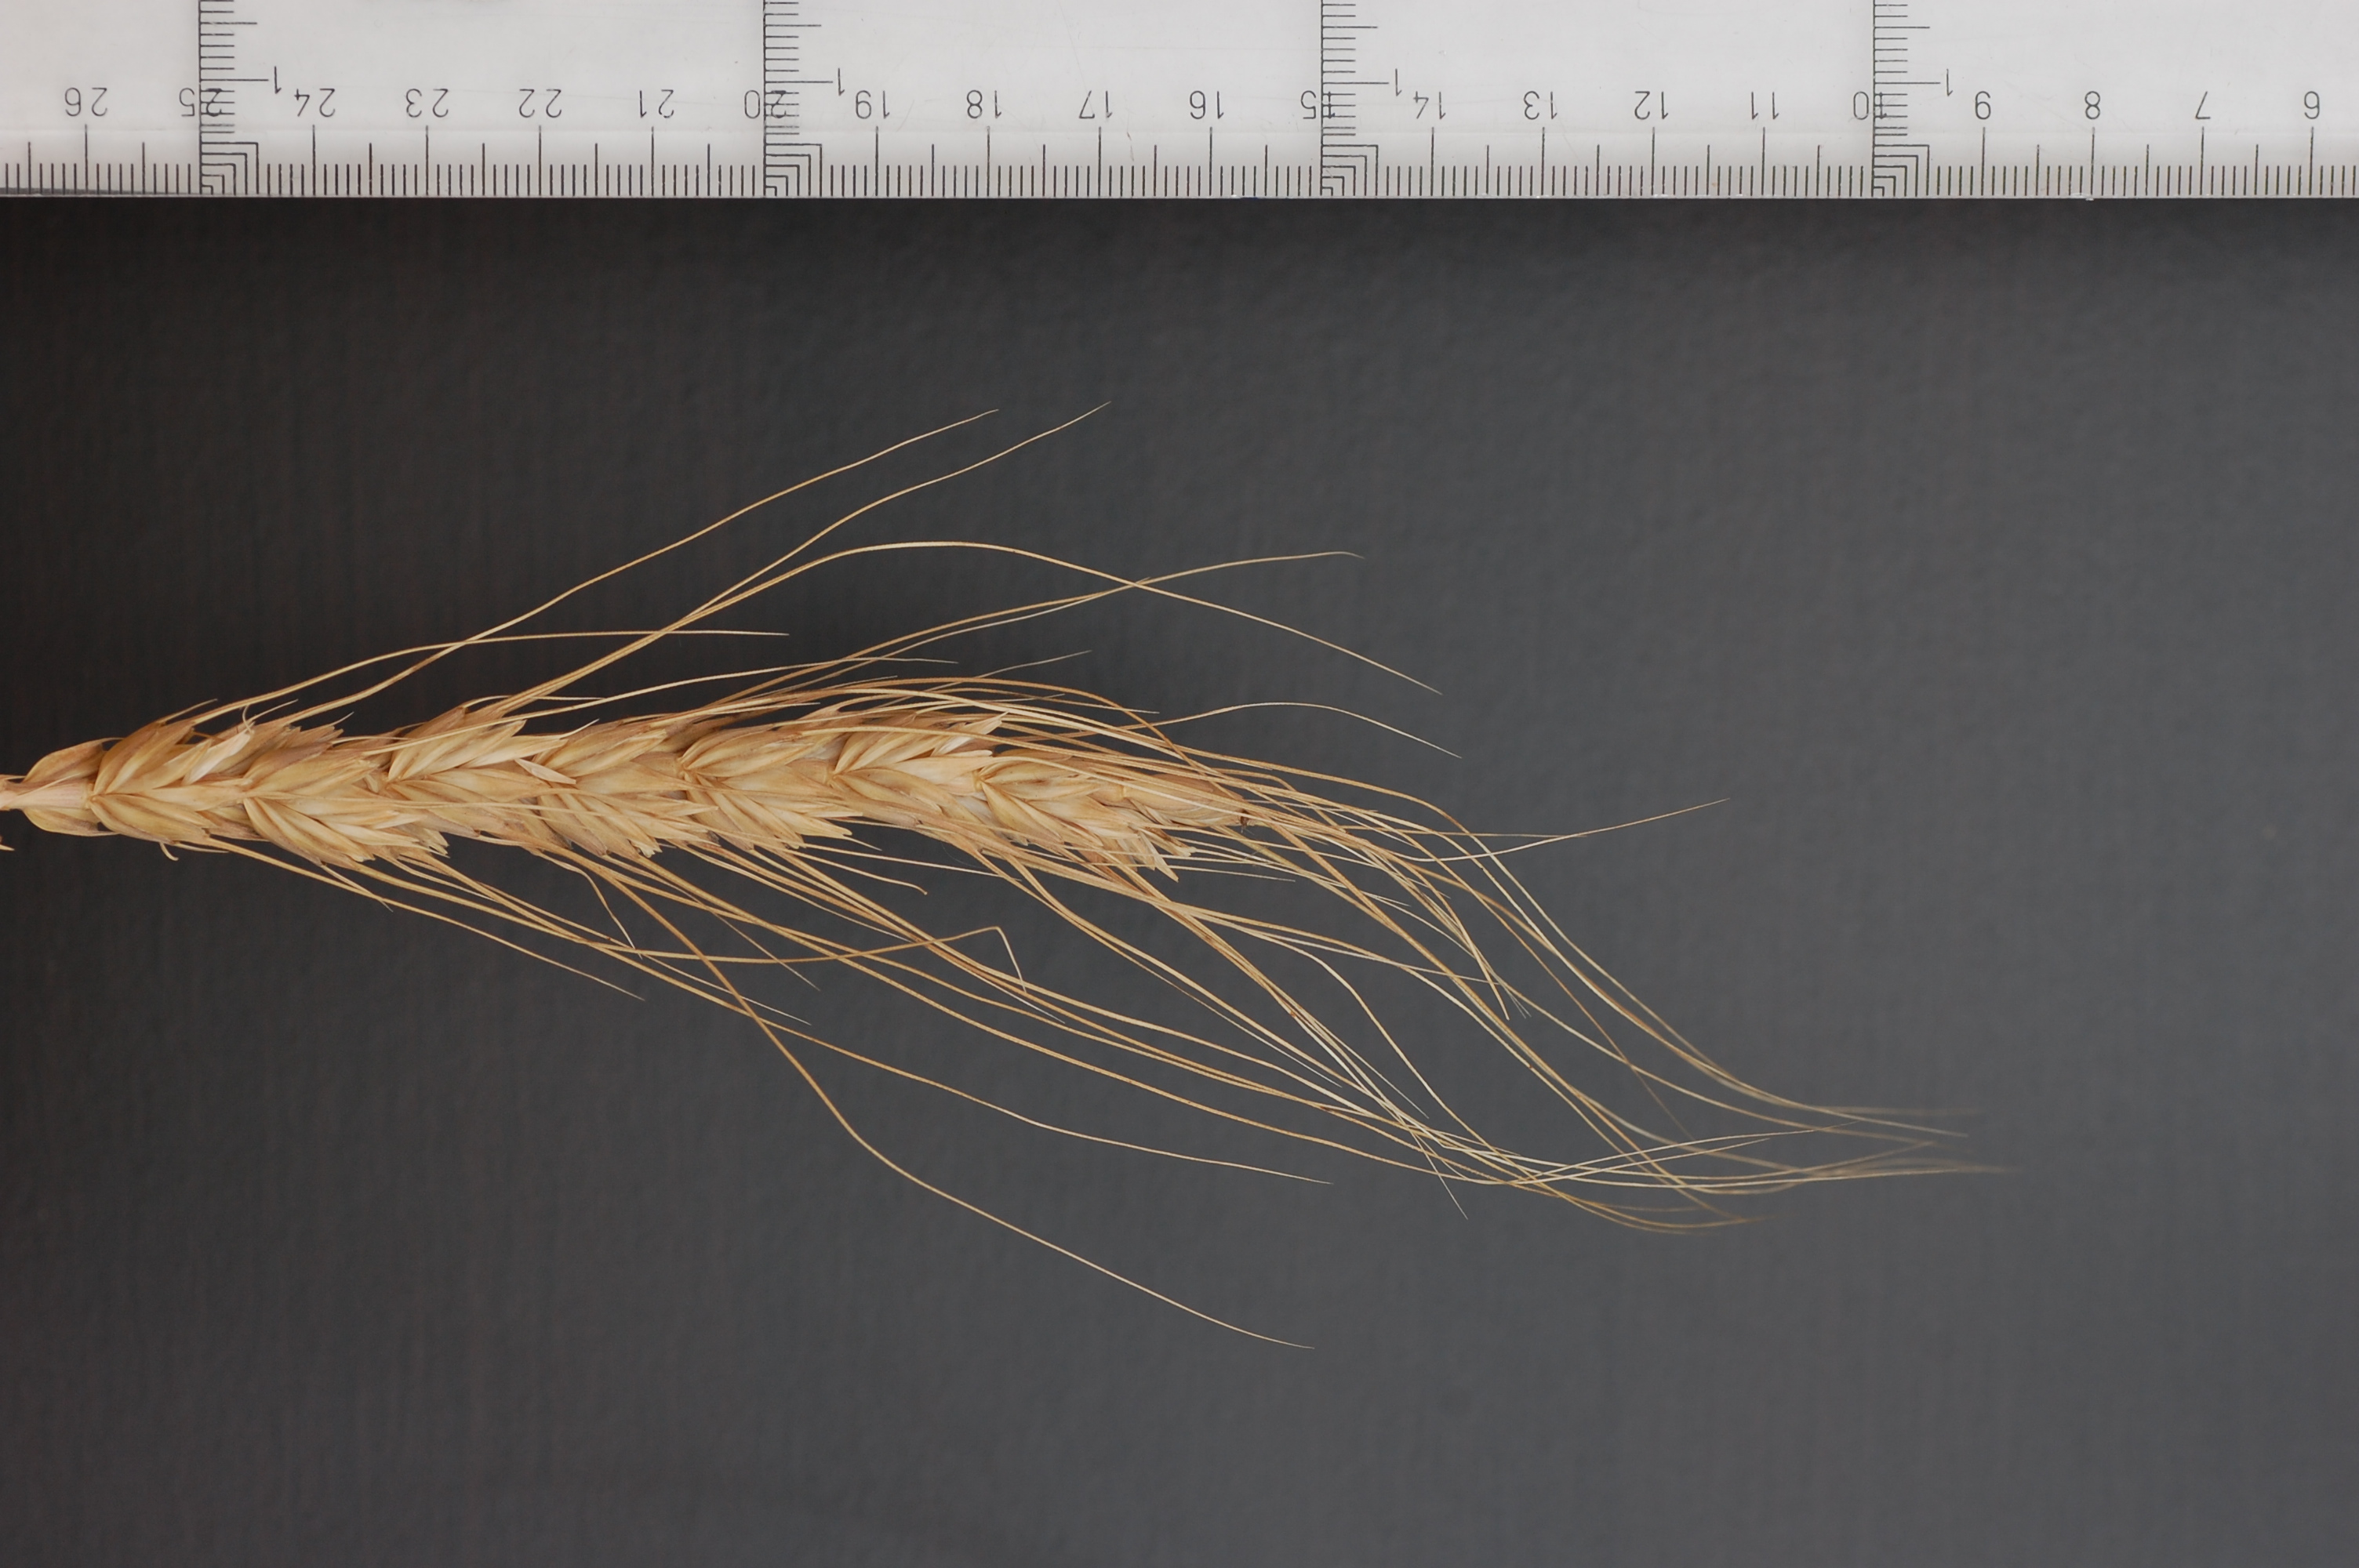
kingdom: Plantae
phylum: Tracheophyta
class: Liliopsida
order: Poales
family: Poaceae
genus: Triticum
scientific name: Triticum aestivum
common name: Common wheat
